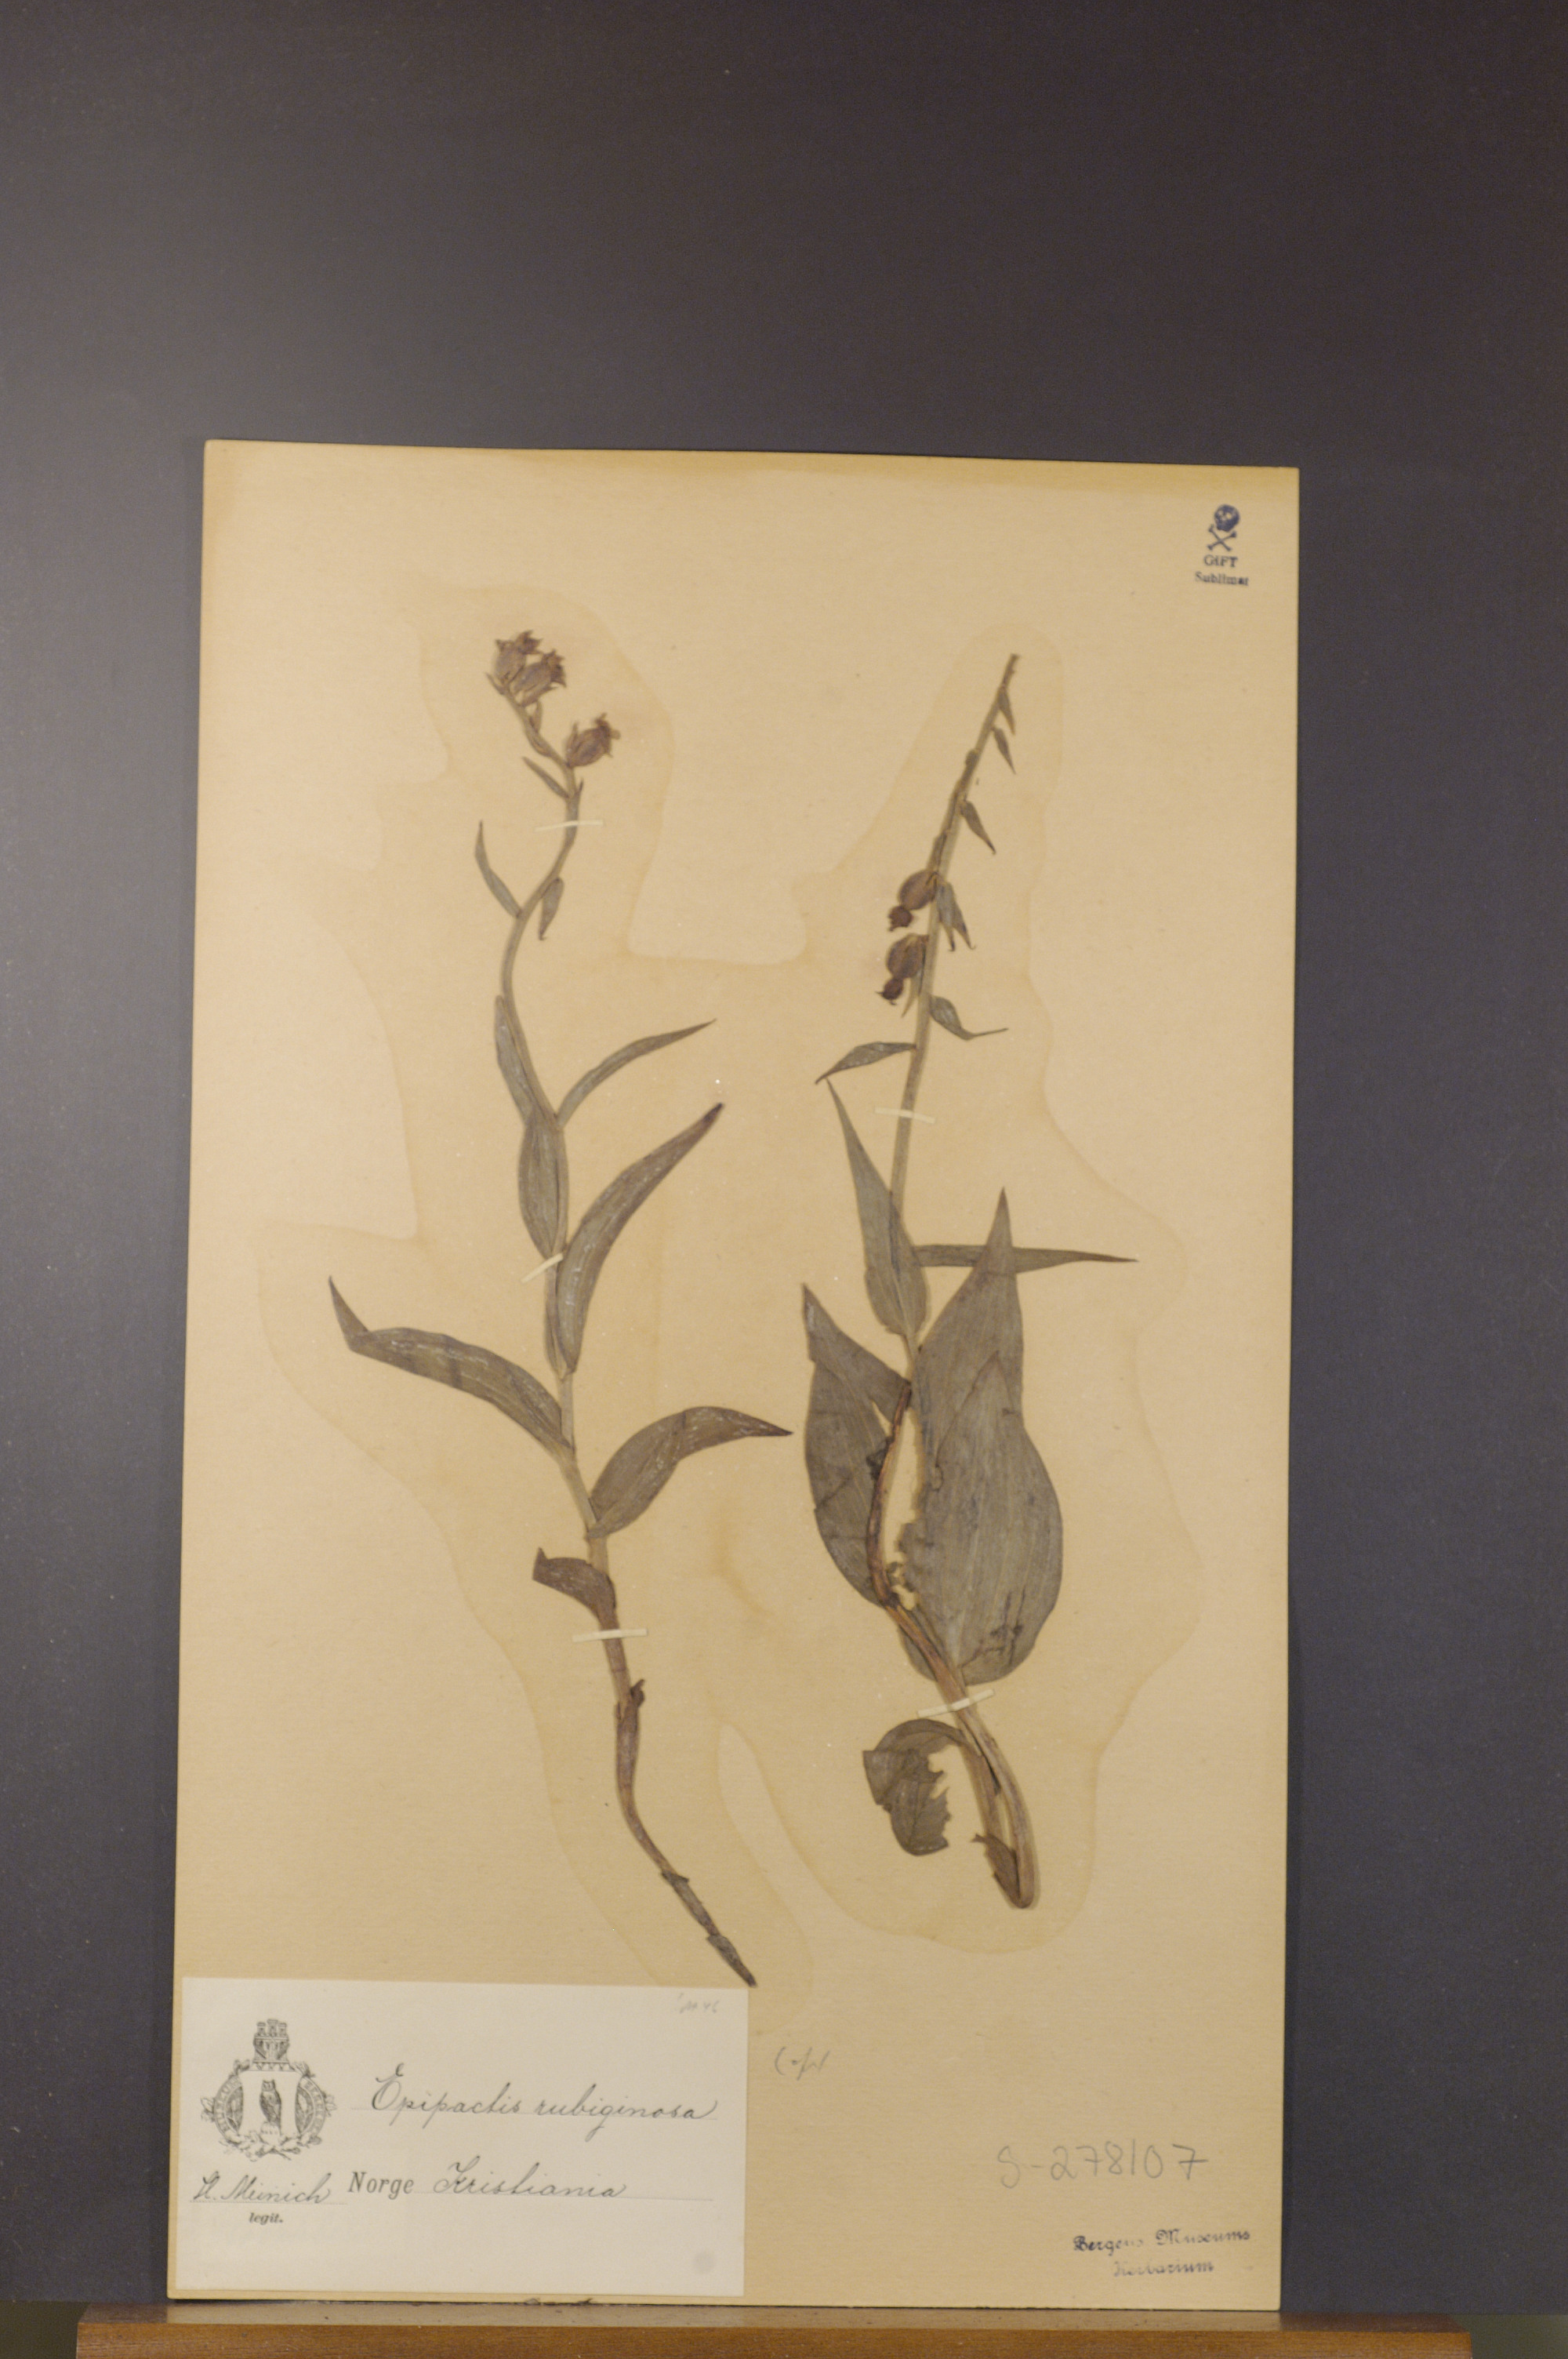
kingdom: Plantae
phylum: Tracheophyta
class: Liliopsida
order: Asparagales
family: Orchidaceae
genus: Epipactis
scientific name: Epipactis atrorubens
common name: Dark-red helleborine
